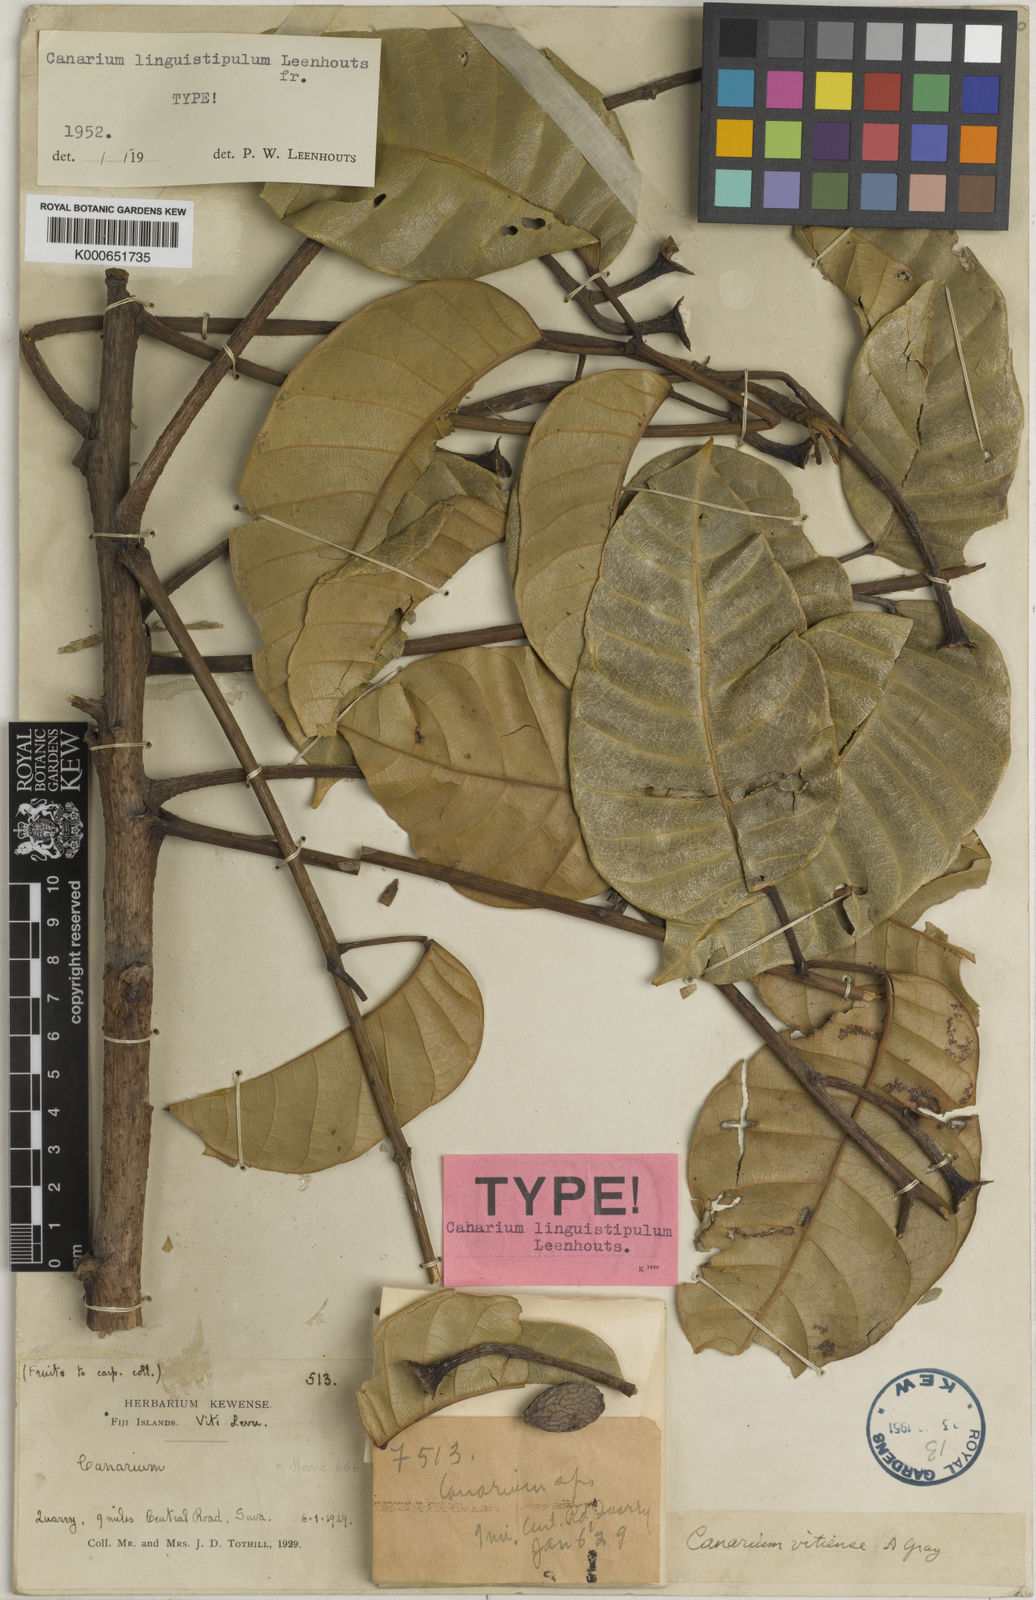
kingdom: Plantae
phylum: Tracheophyta
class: Magnoliopsida
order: Sapindales
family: Burseraceae
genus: Canarium
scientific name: Canarium vanikoroense
